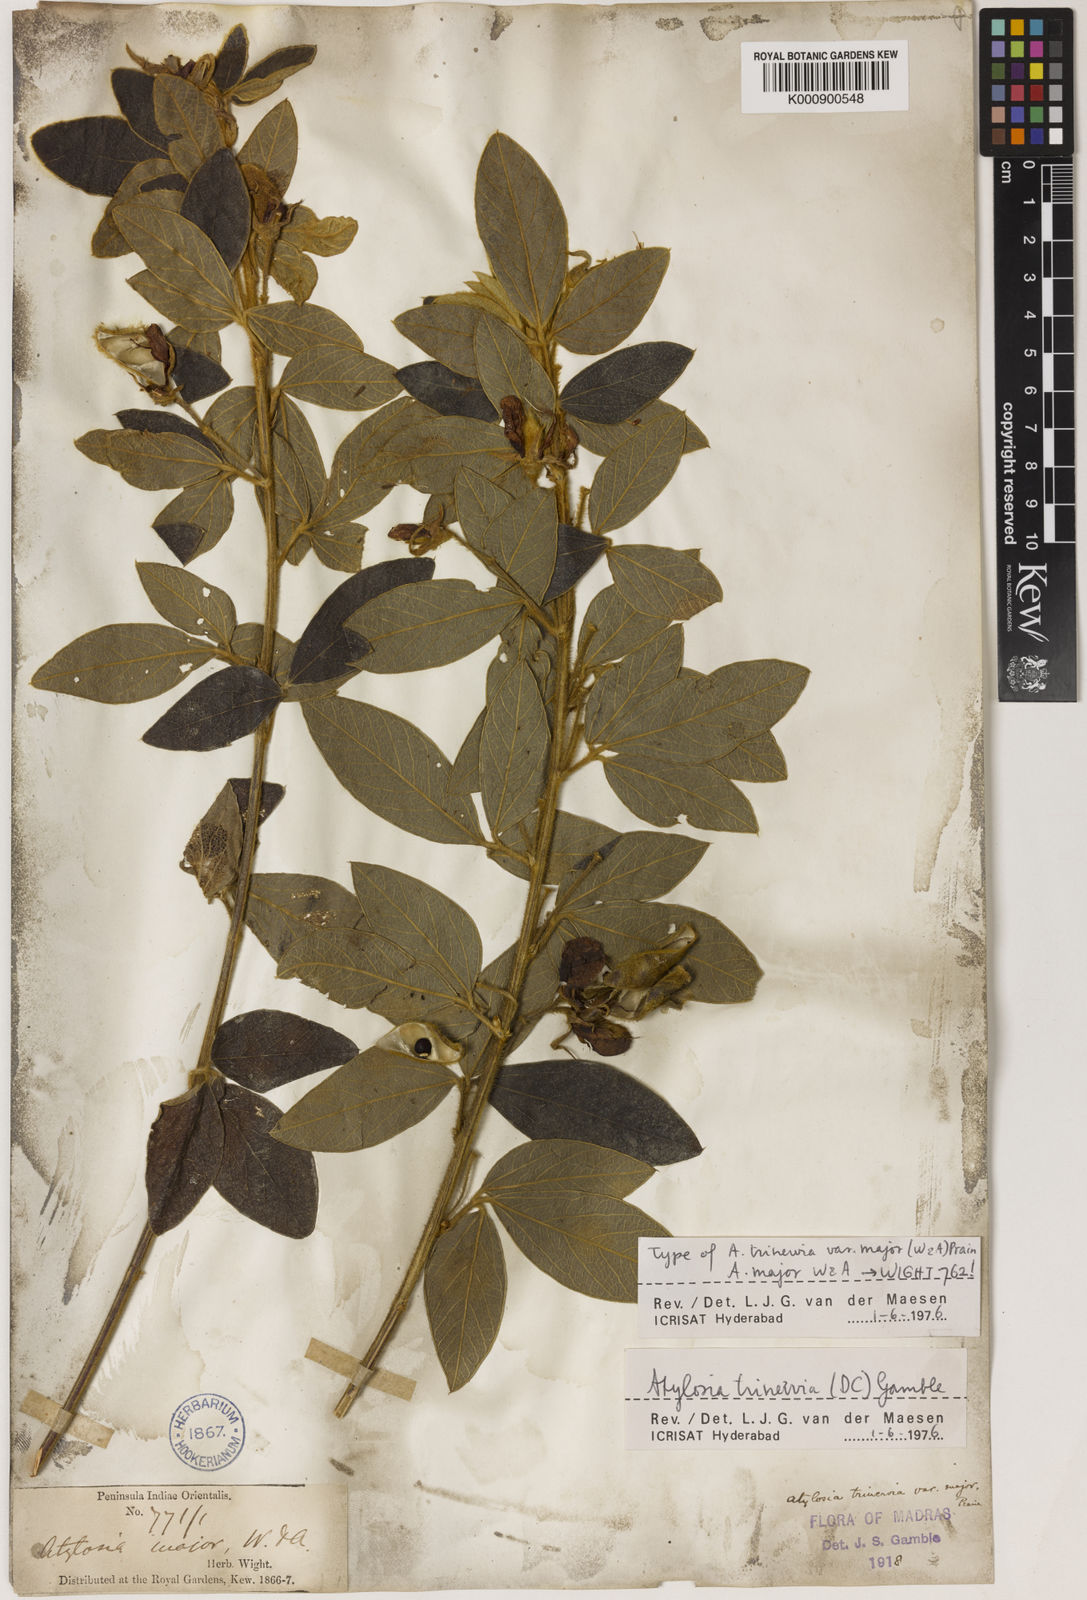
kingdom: Plantae
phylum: Tracheophyta
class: Magnoliopsida
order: Fabales
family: Fabaceae
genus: Cajanus
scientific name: Cajanus
